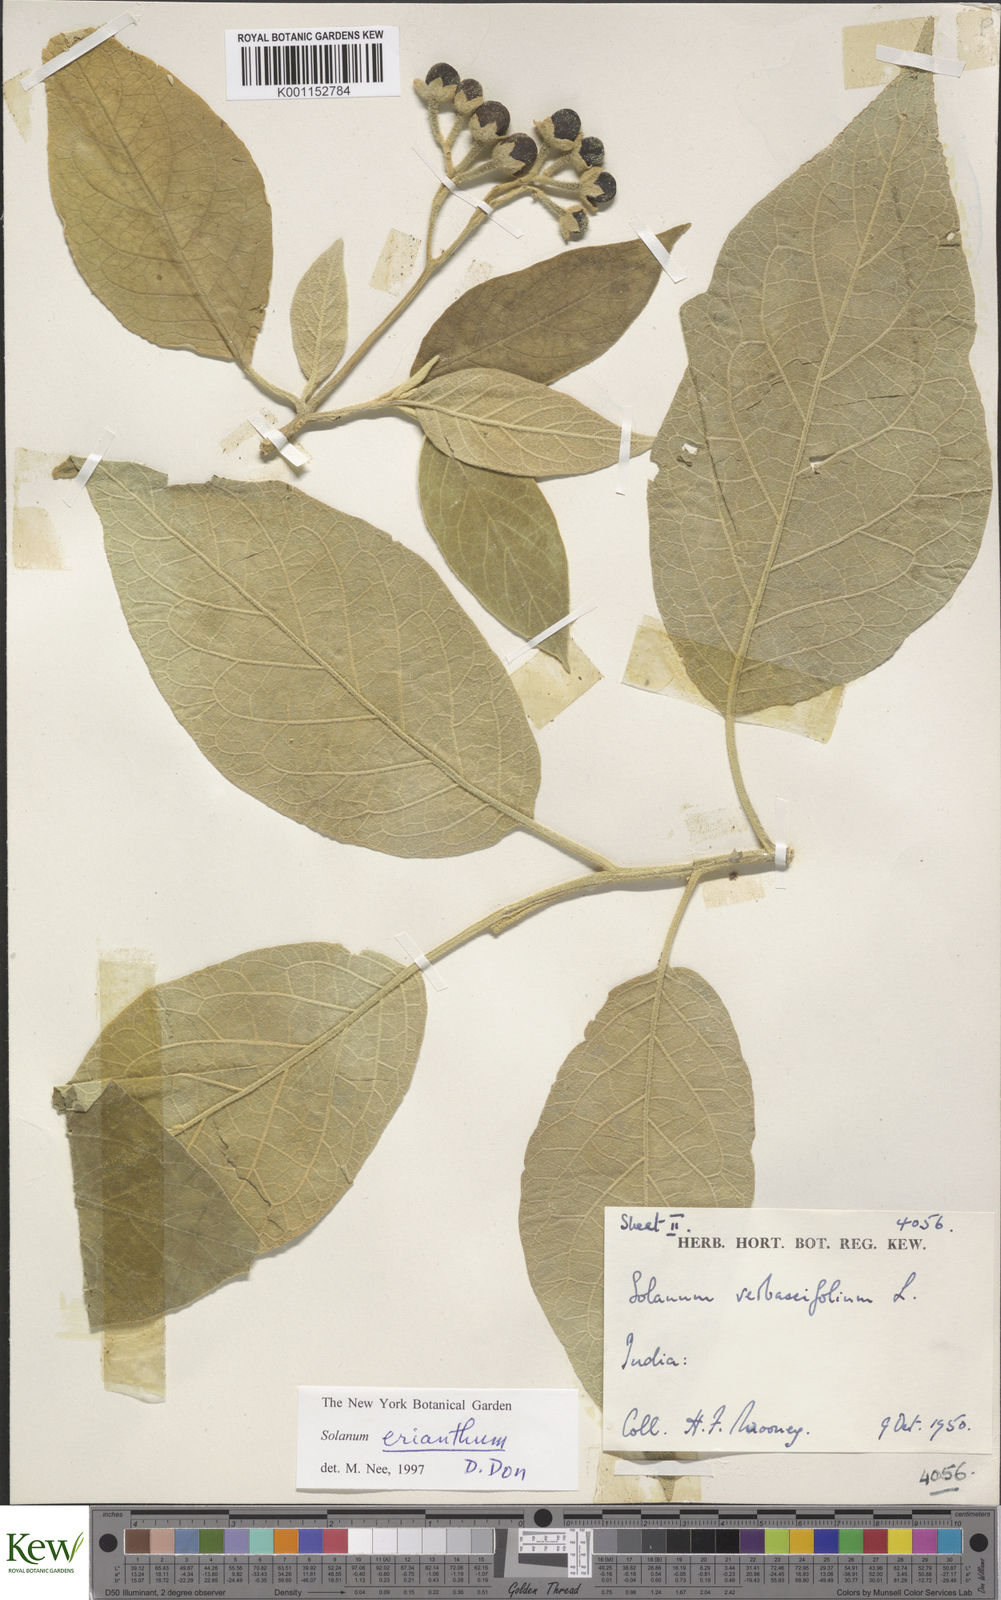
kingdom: Plantae
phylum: Tracheophyta
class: Magnoliopsida
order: Solanales
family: Solanaceae
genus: Solanum
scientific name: Solanum erianthum
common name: Tobacco-tree
